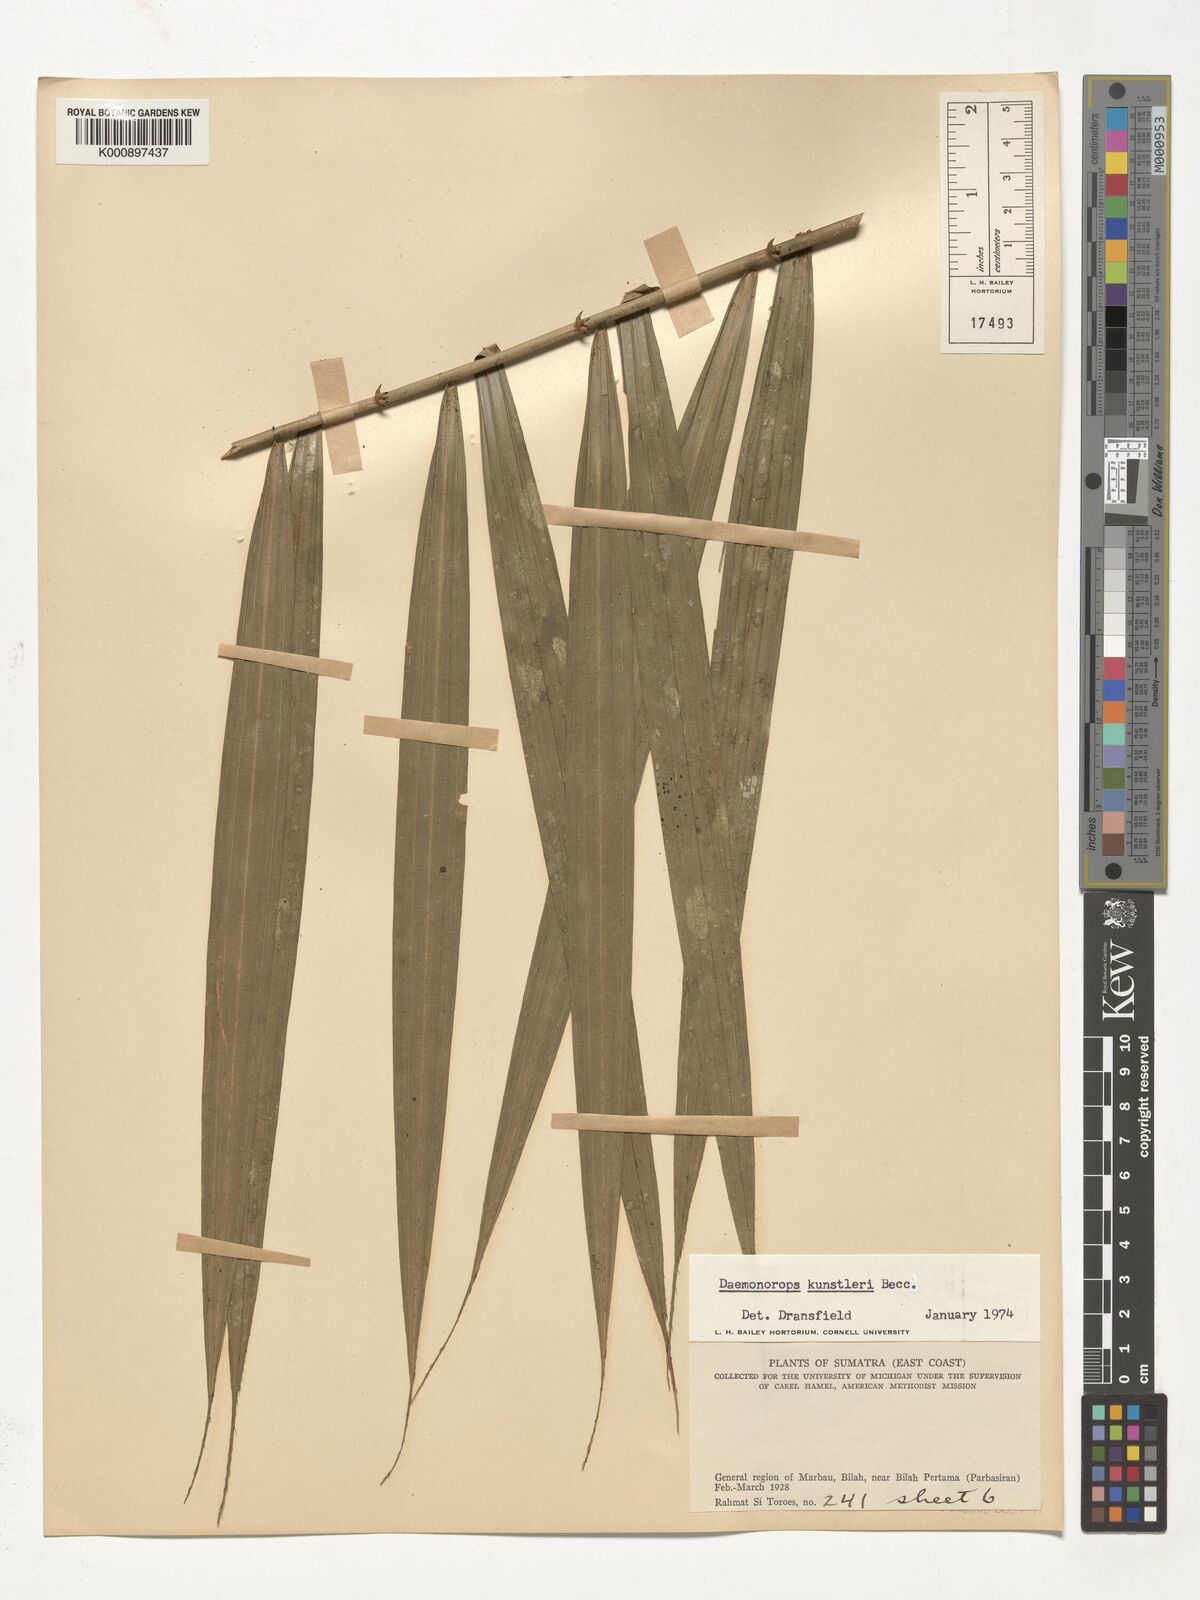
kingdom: Plantae
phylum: Tracheophyta
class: Liliopsida
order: Arecales
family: Arecaceae
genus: Calamus
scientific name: Calamus kunstleri
